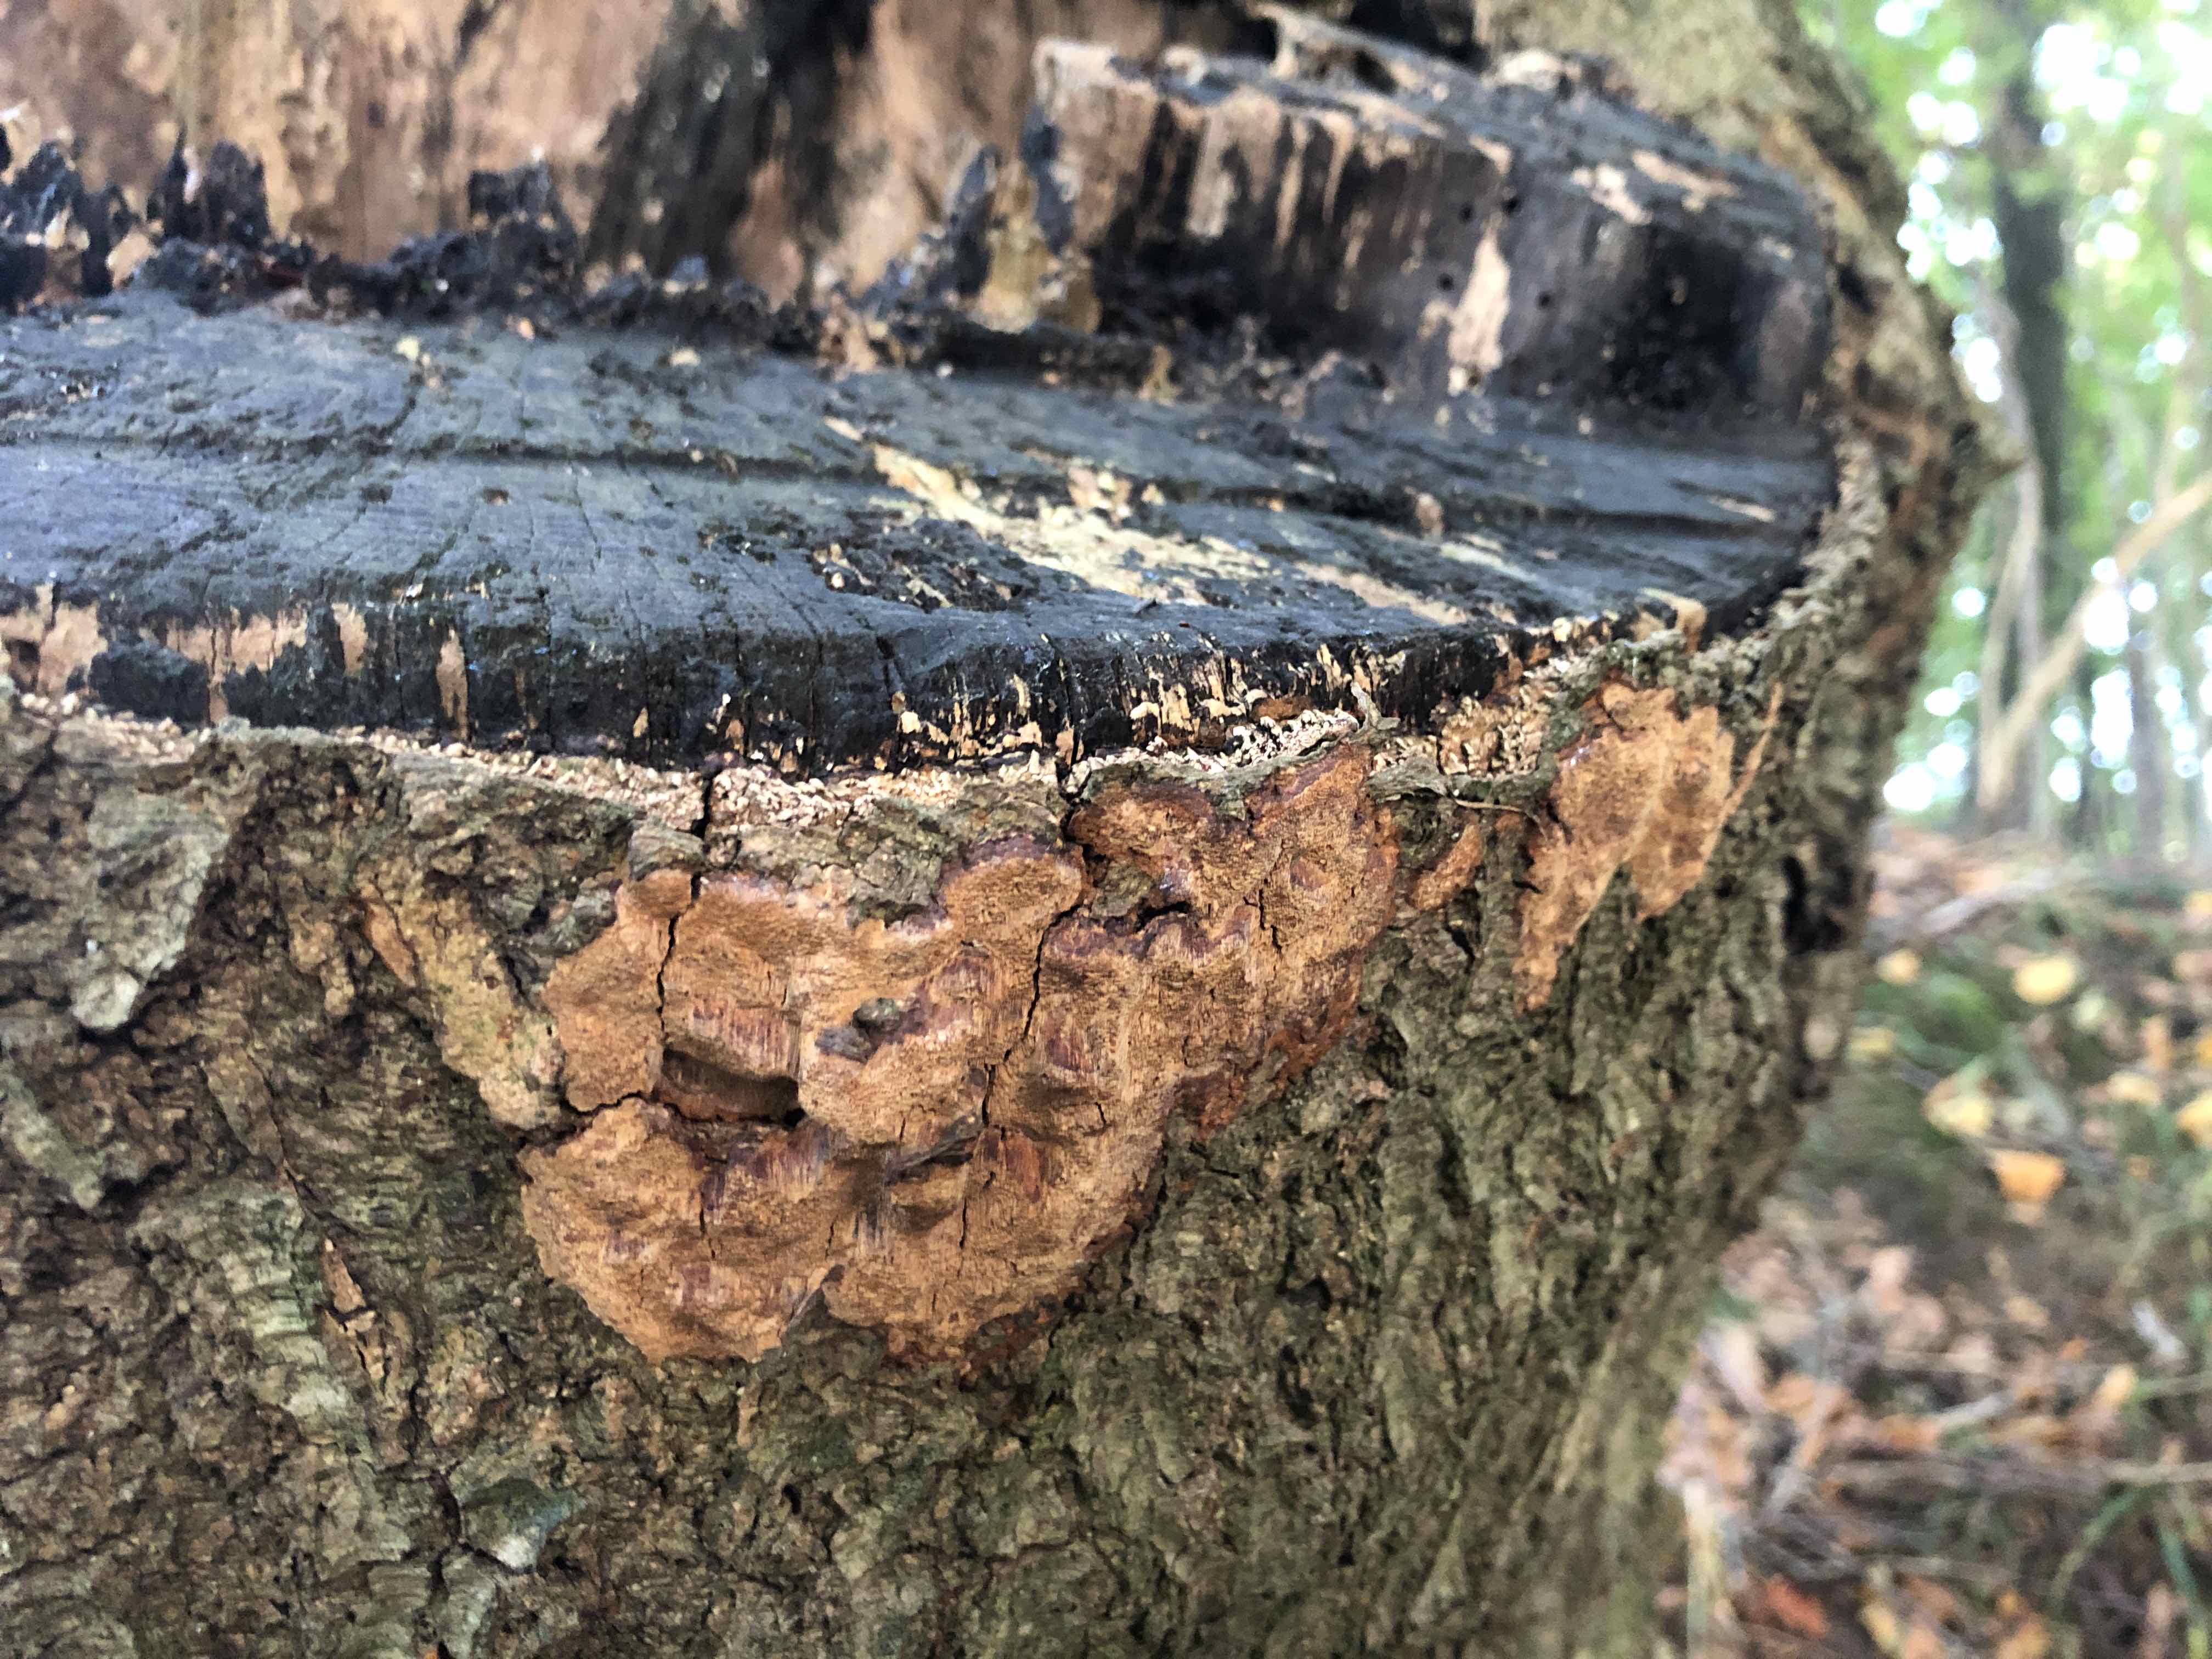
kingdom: Fungi
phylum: Basidiomycota
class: Agaricomycetes
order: Hymenochaetales
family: Hymenochaetaceae
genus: Fuscoporia
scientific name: Fuscoporia ferrea
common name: skorpe-ildporesvamp
